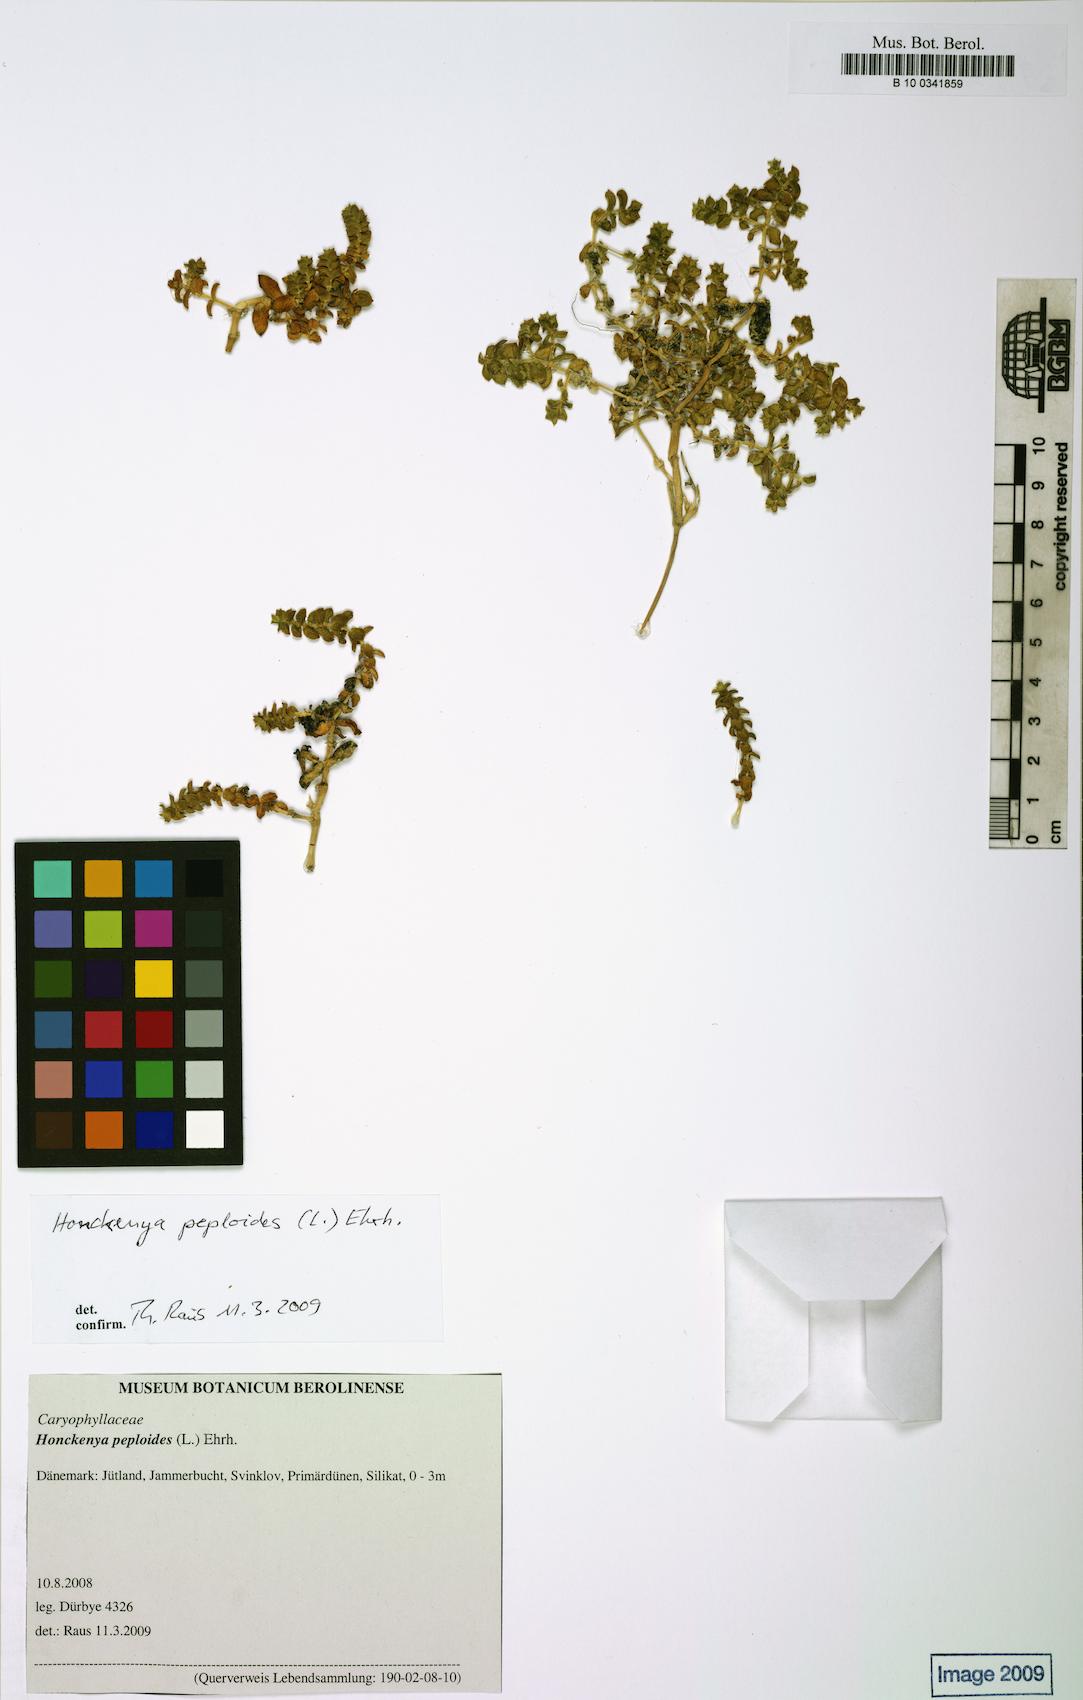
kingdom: Plantae
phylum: Tracheophyta
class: Magnoliopsida
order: Caryophyllales
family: Caryophyllaceae
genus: Honckenya
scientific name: Honckenya peploides
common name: Sea sandwort
